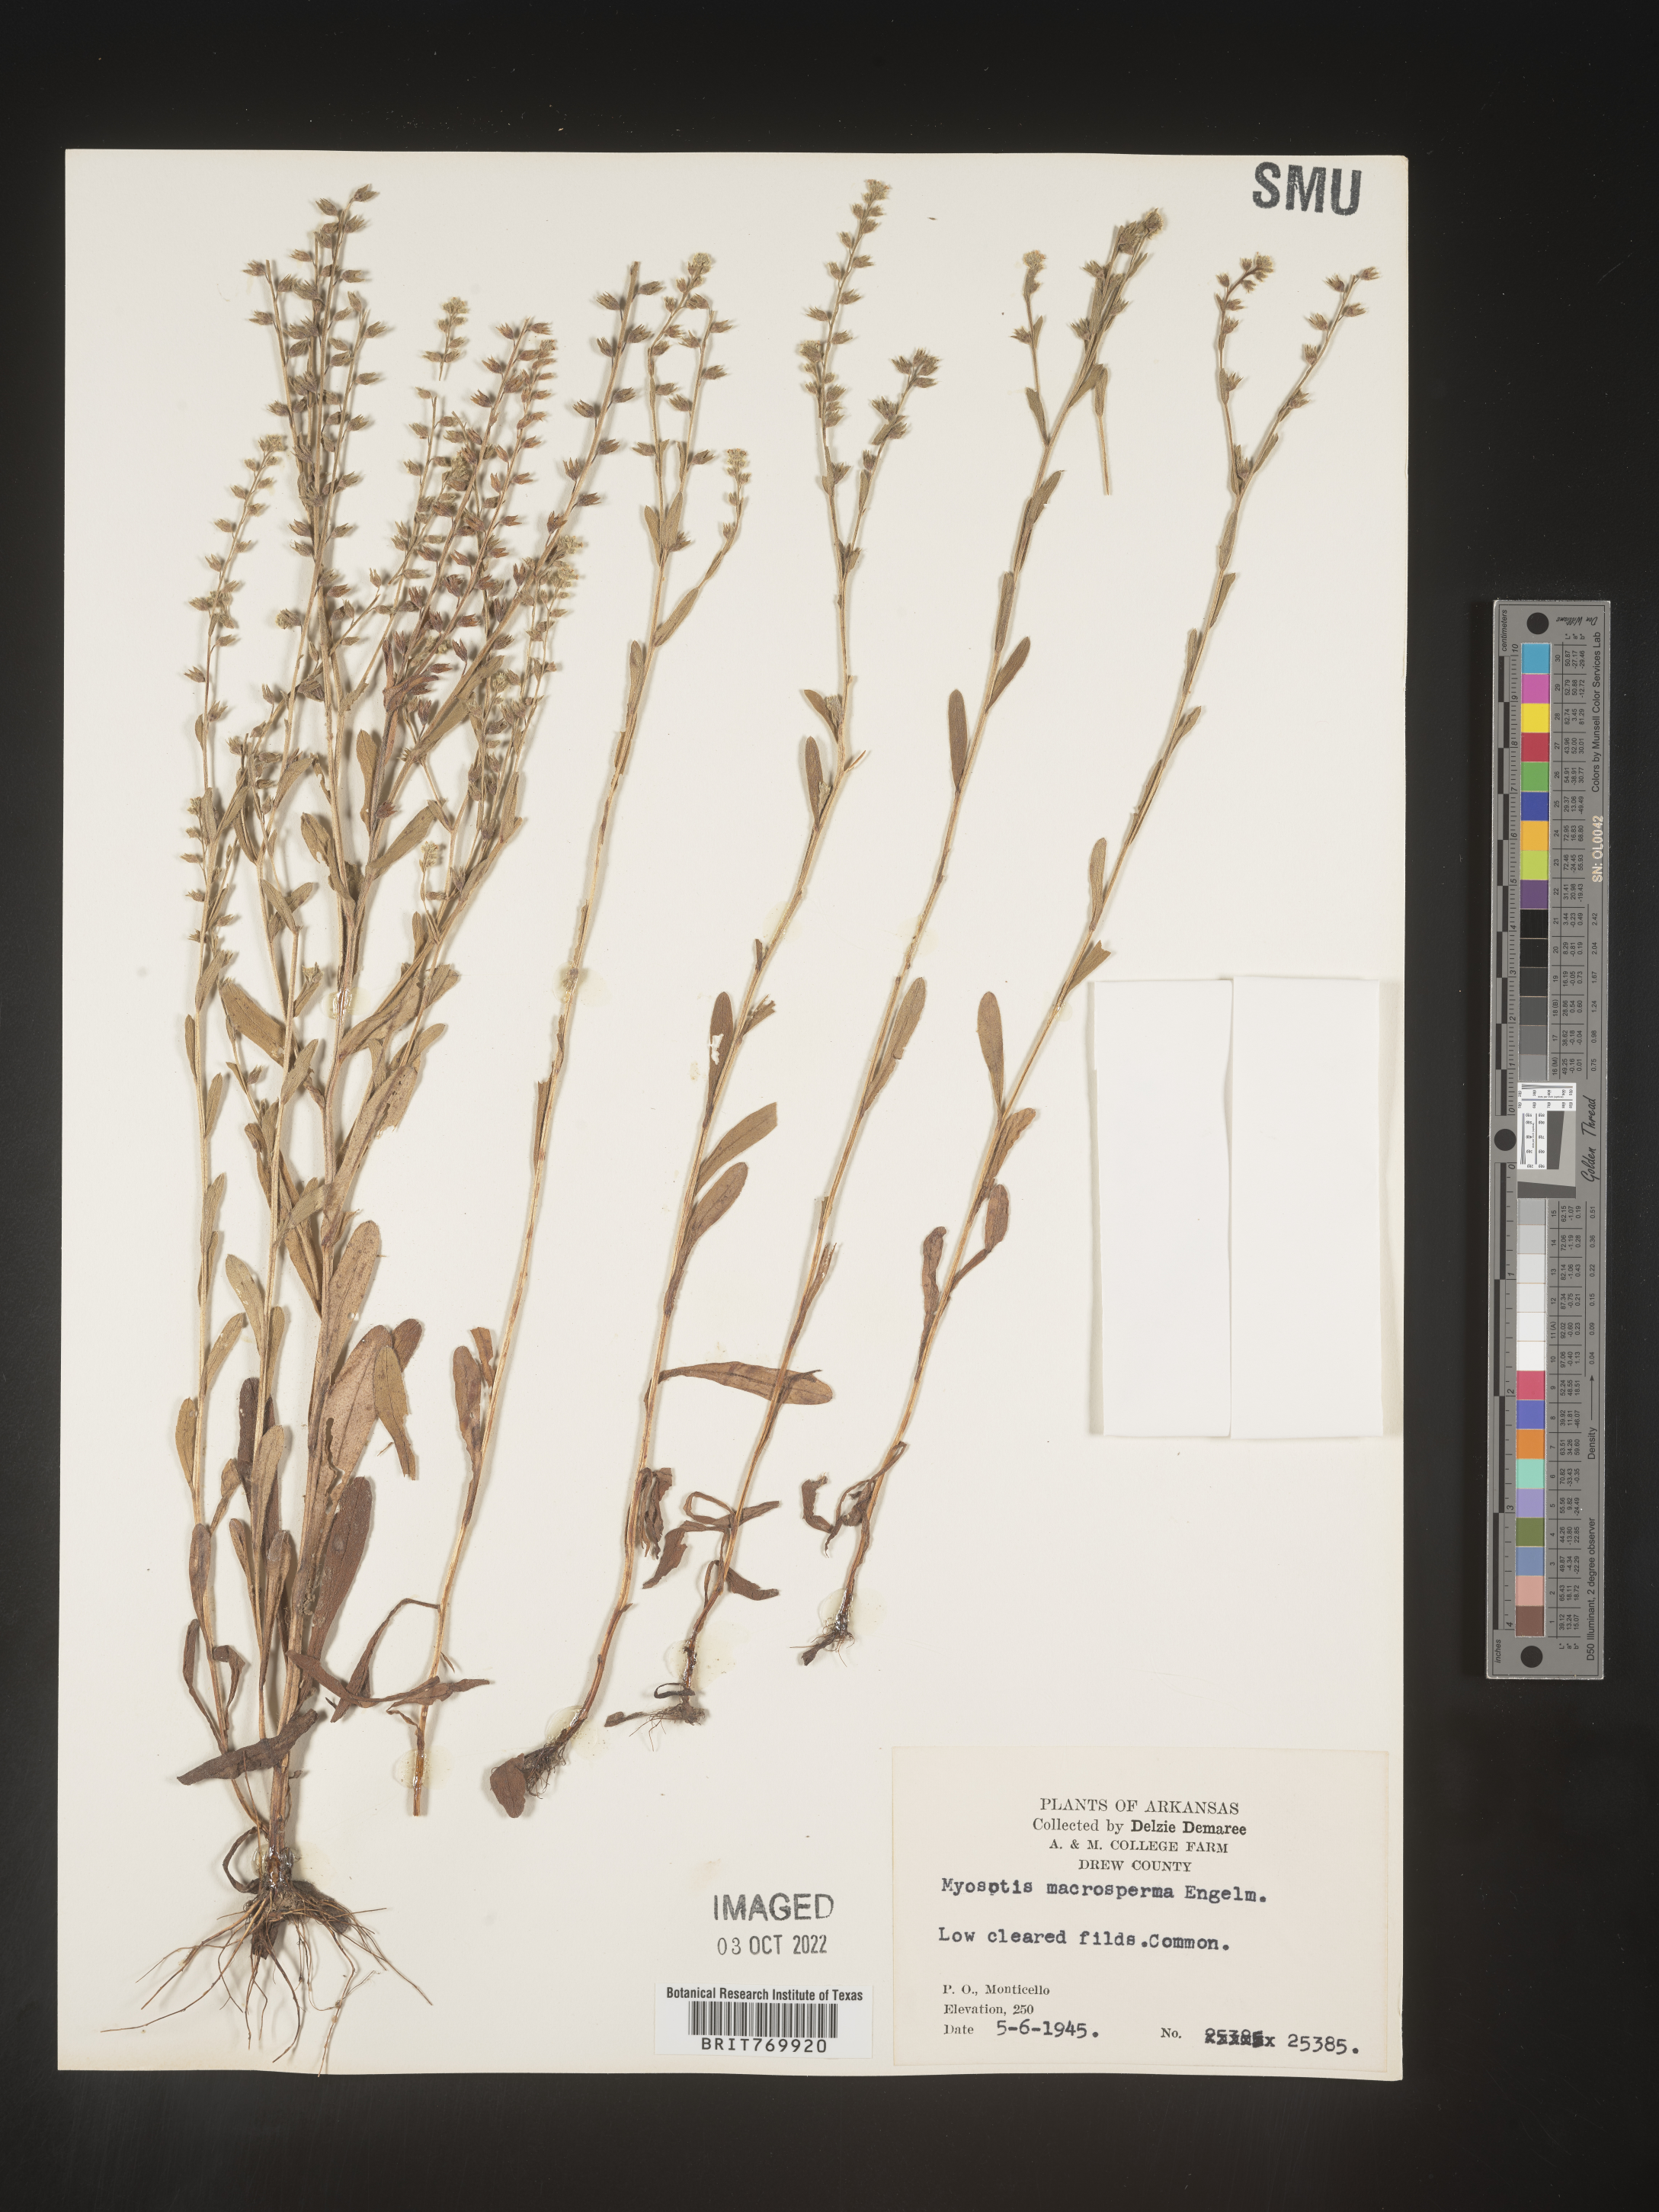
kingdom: Plantae
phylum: Tracheophyta
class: Magnoliopsida
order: Boraginales
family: Boraginaceae
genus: Myosotis
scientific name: Myosotis verna
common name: Early forget-me-not
